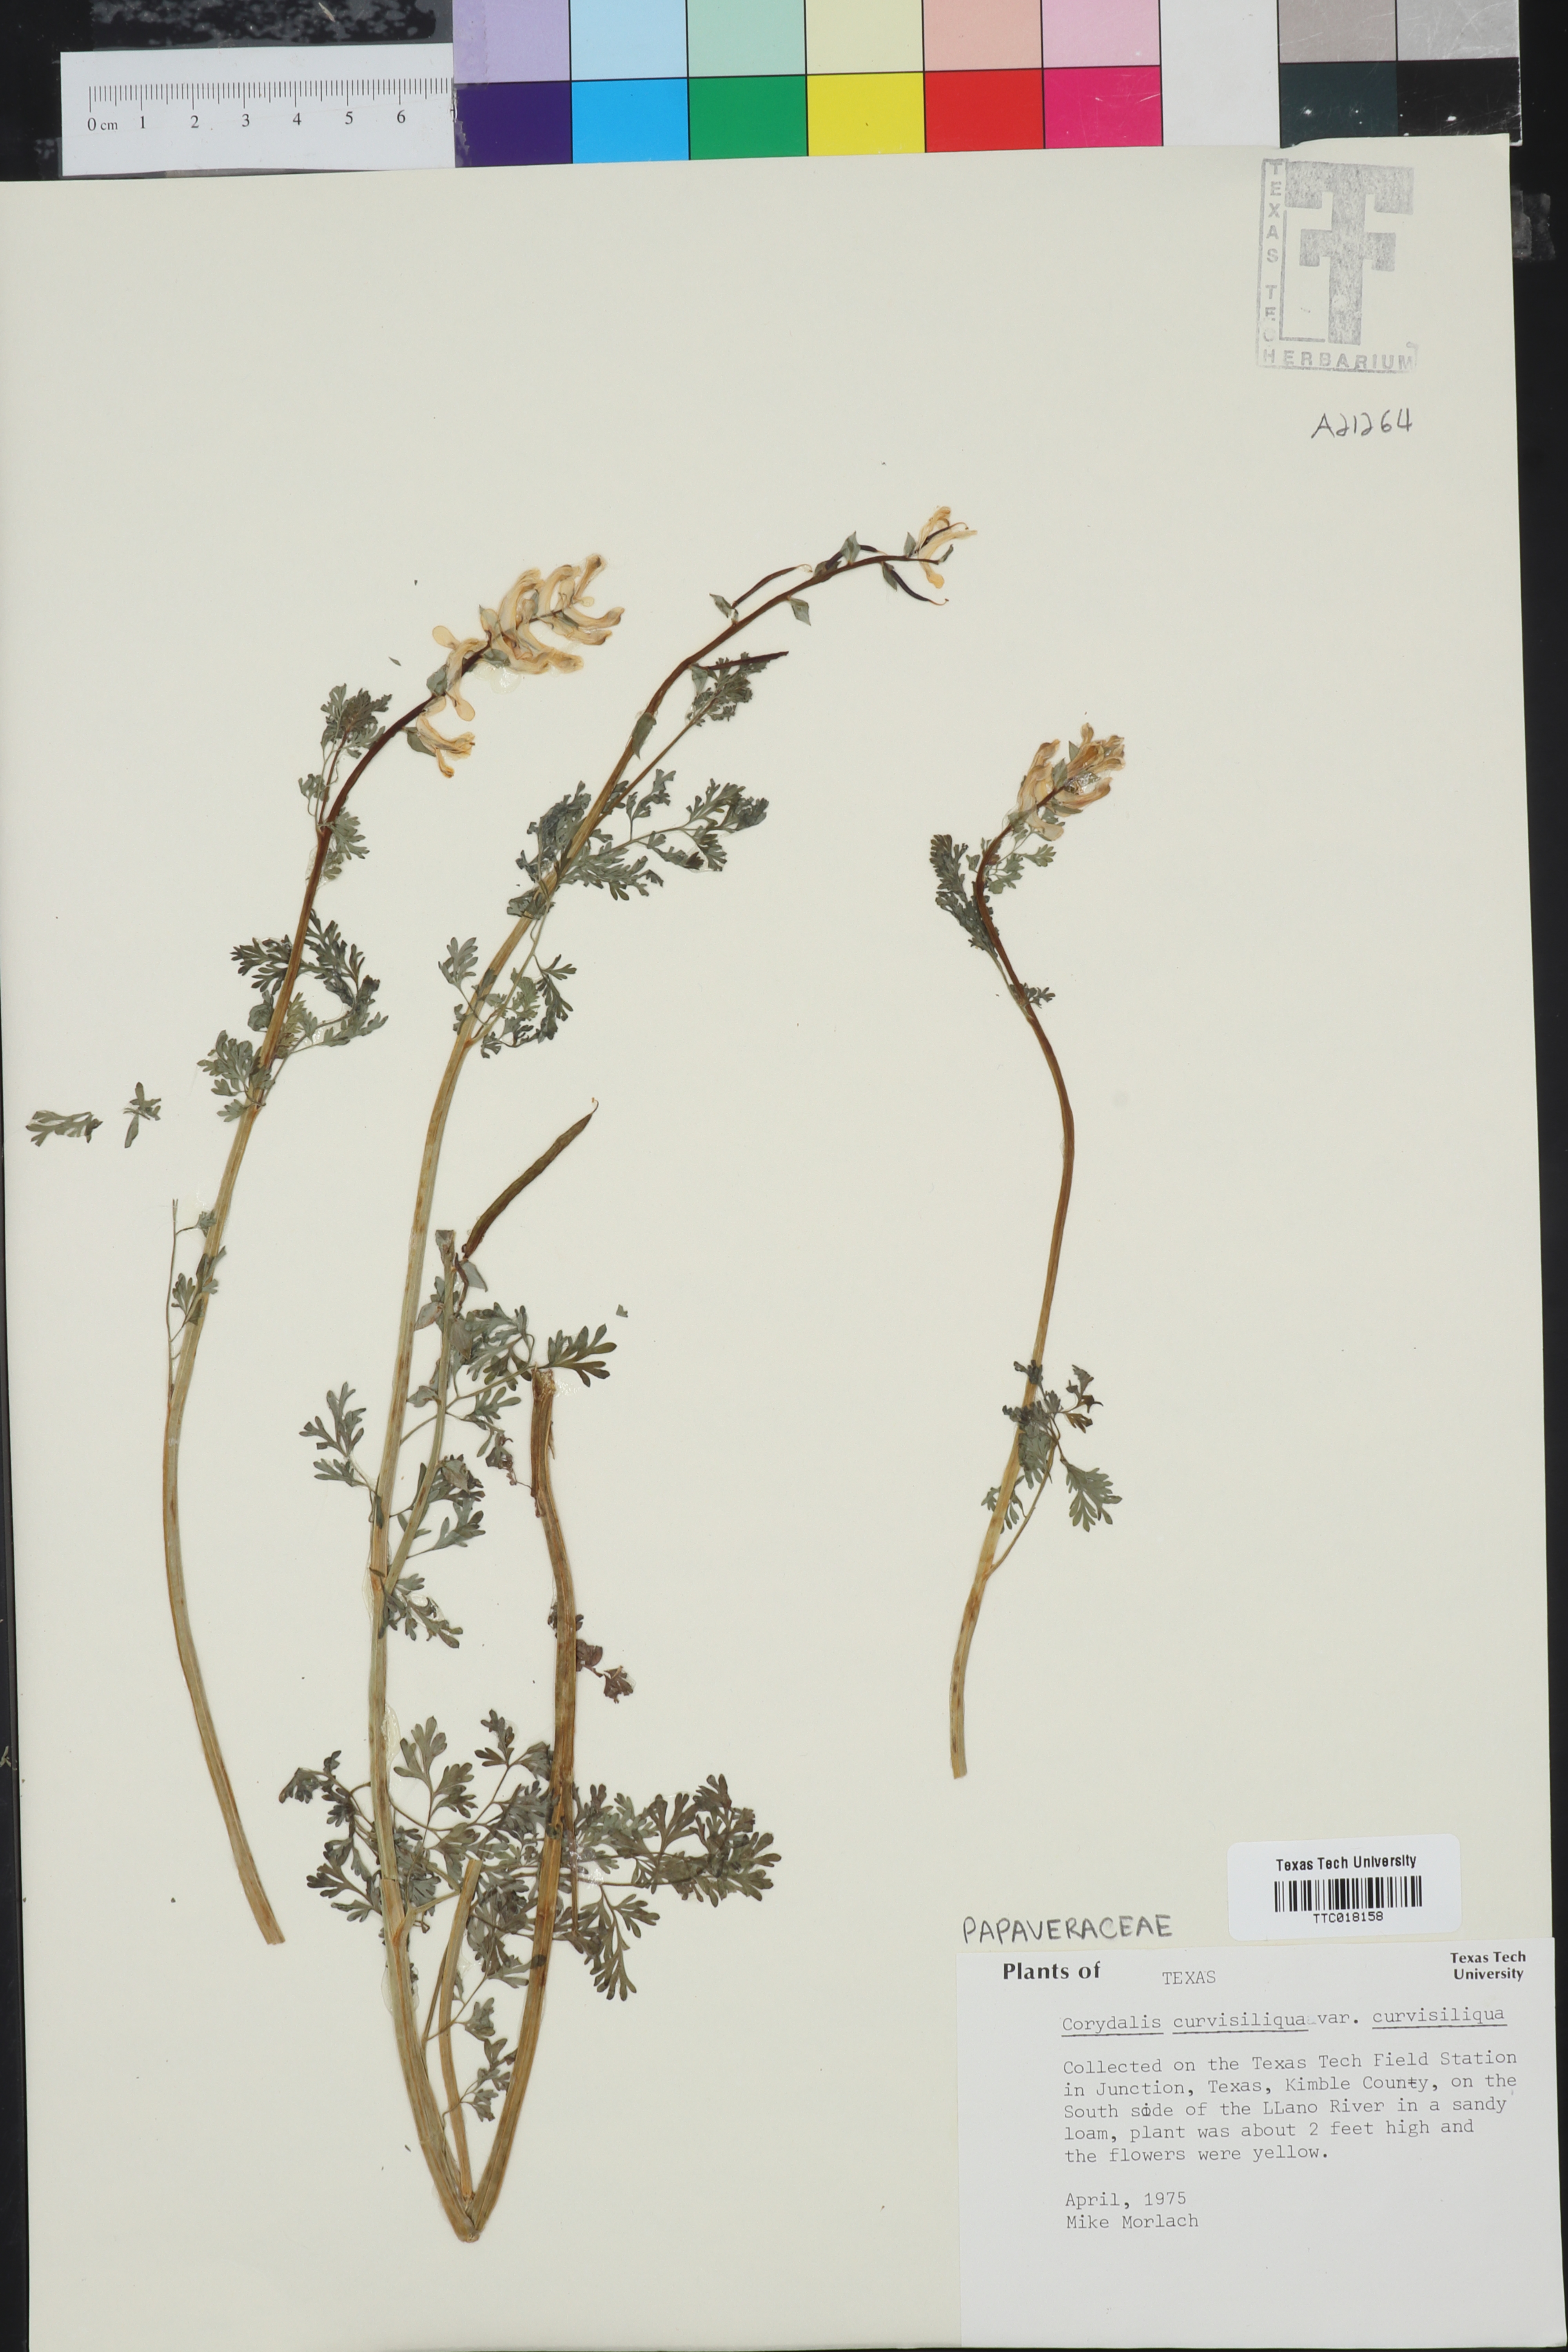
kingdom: Plantae
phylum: Tracheophyta
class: Magnoliopsida
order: Lamiales
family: Plantaginaceae
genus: Plantago
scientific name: Plantago
